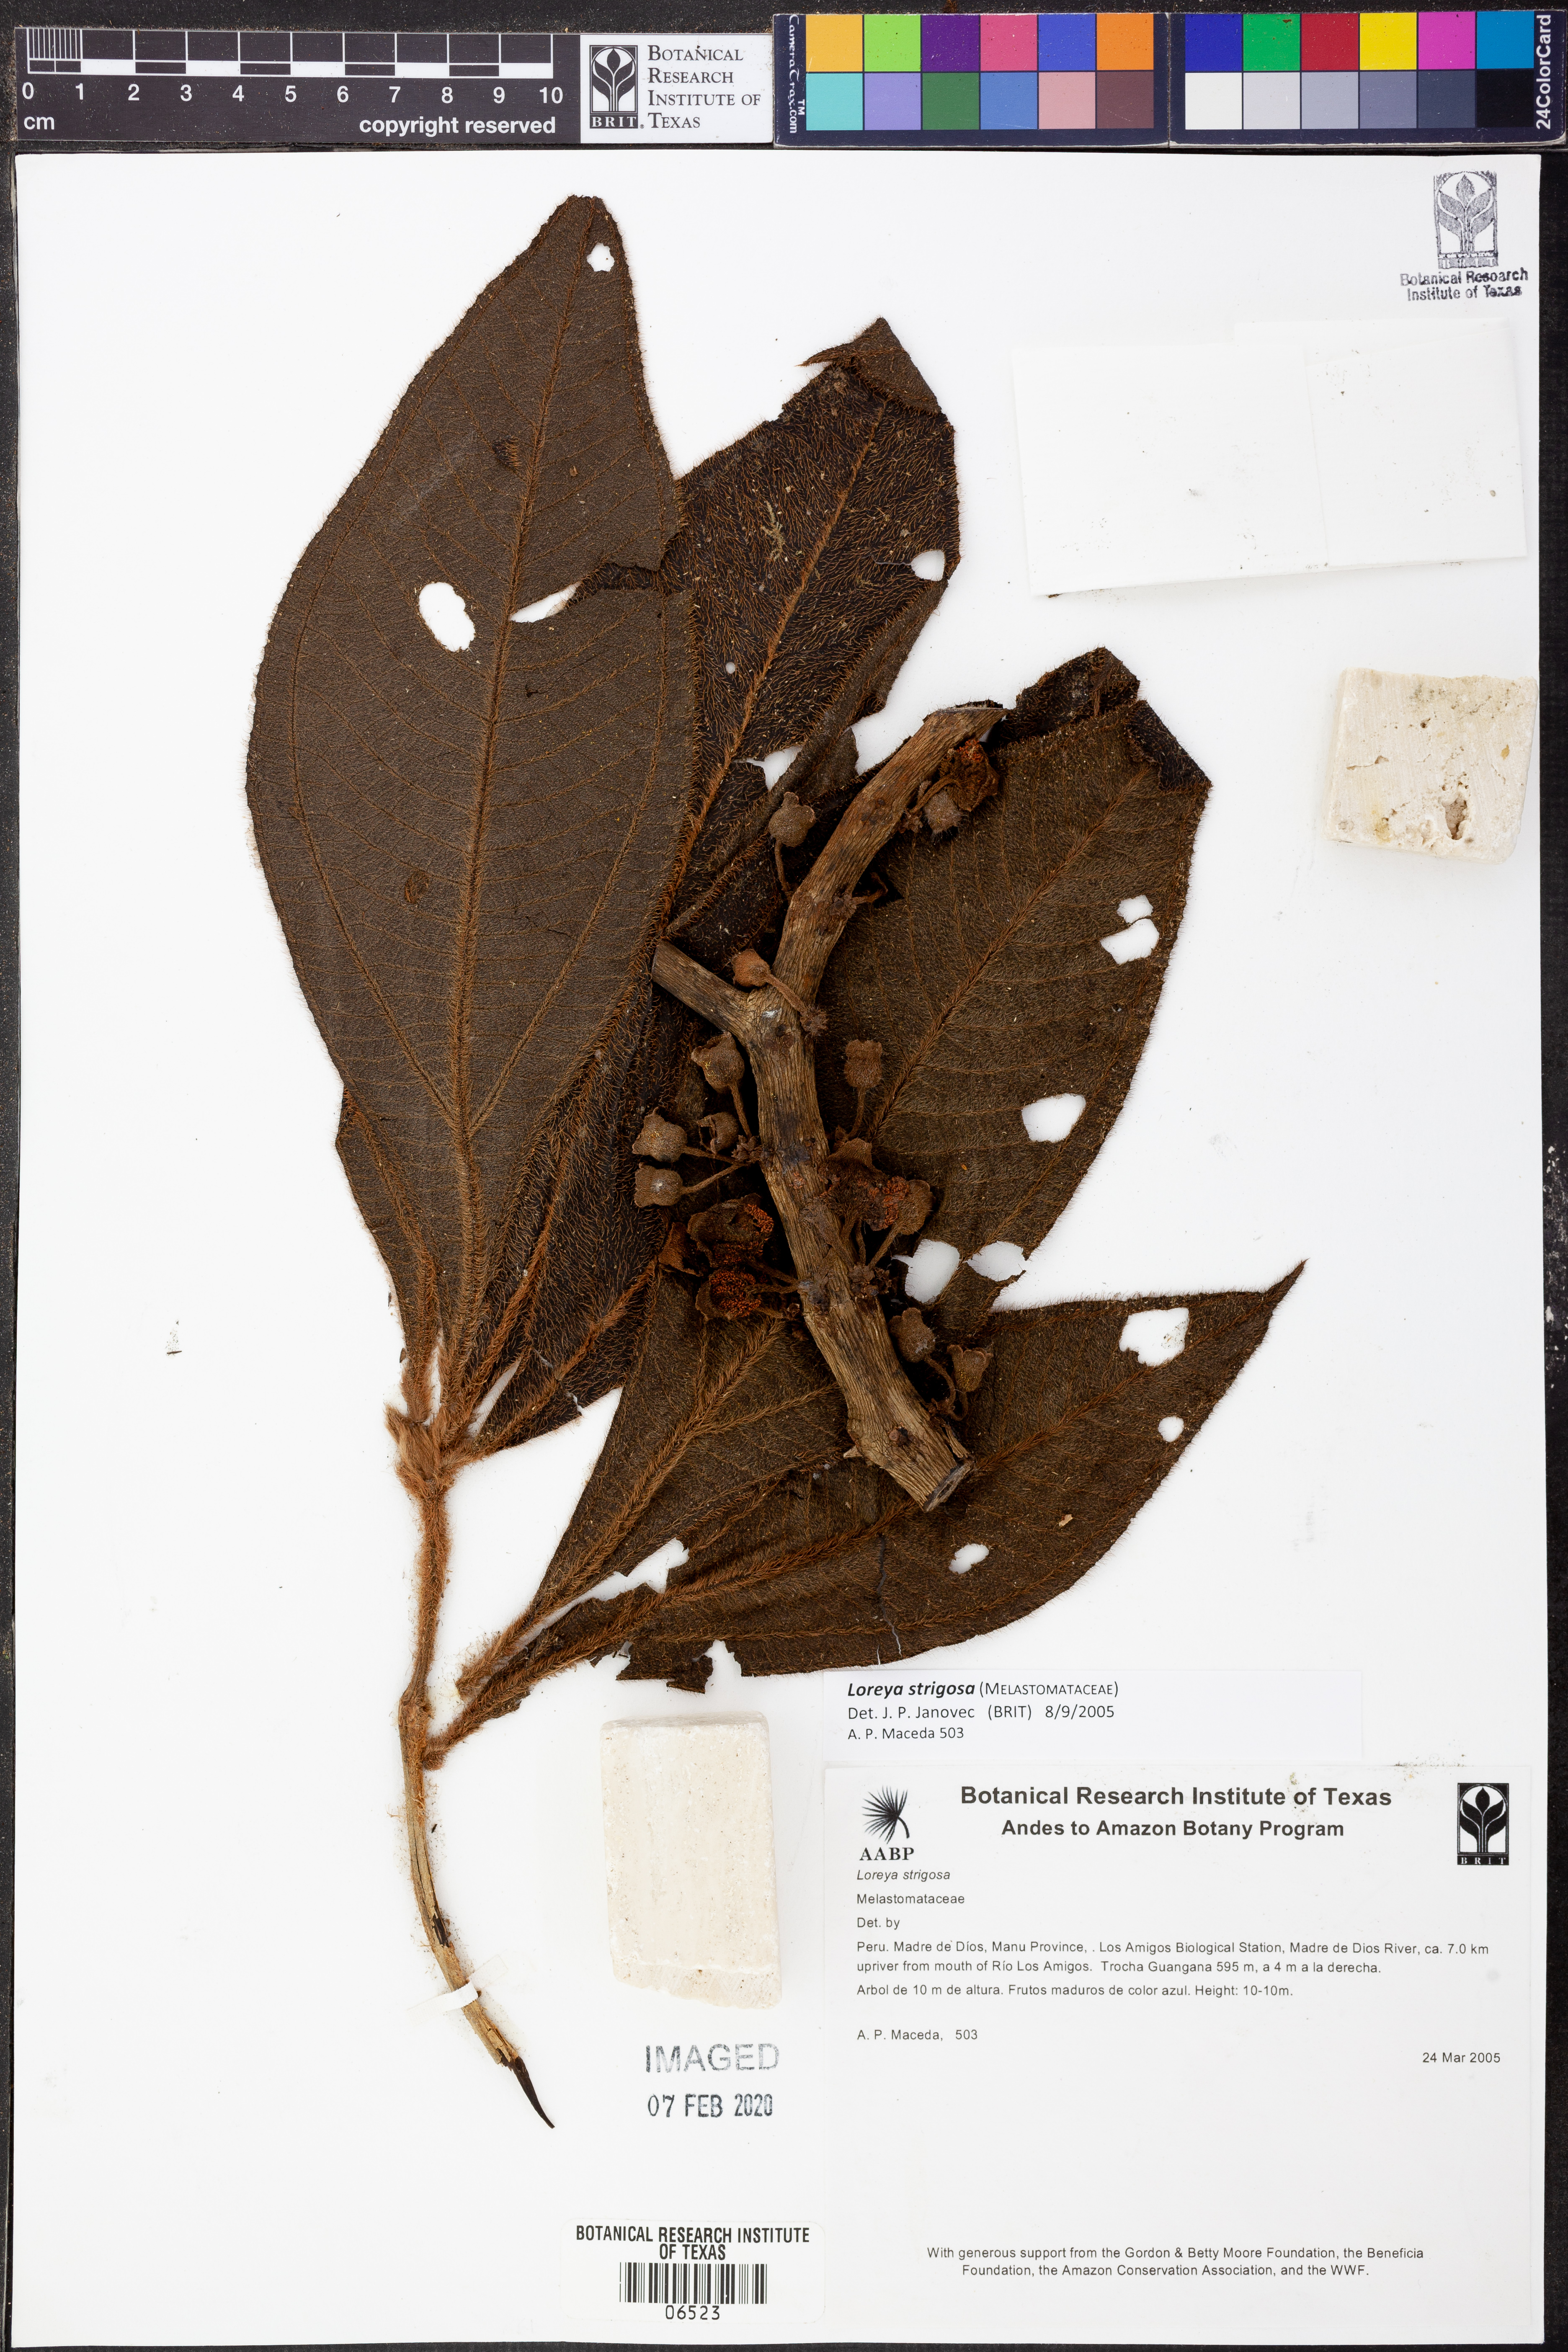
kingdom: Plantae
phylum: Tracheophyta
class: Magnoliopsida
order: Myrtales
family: Melastomataceae
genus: Bellucia
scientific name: Bellucia strigosa
